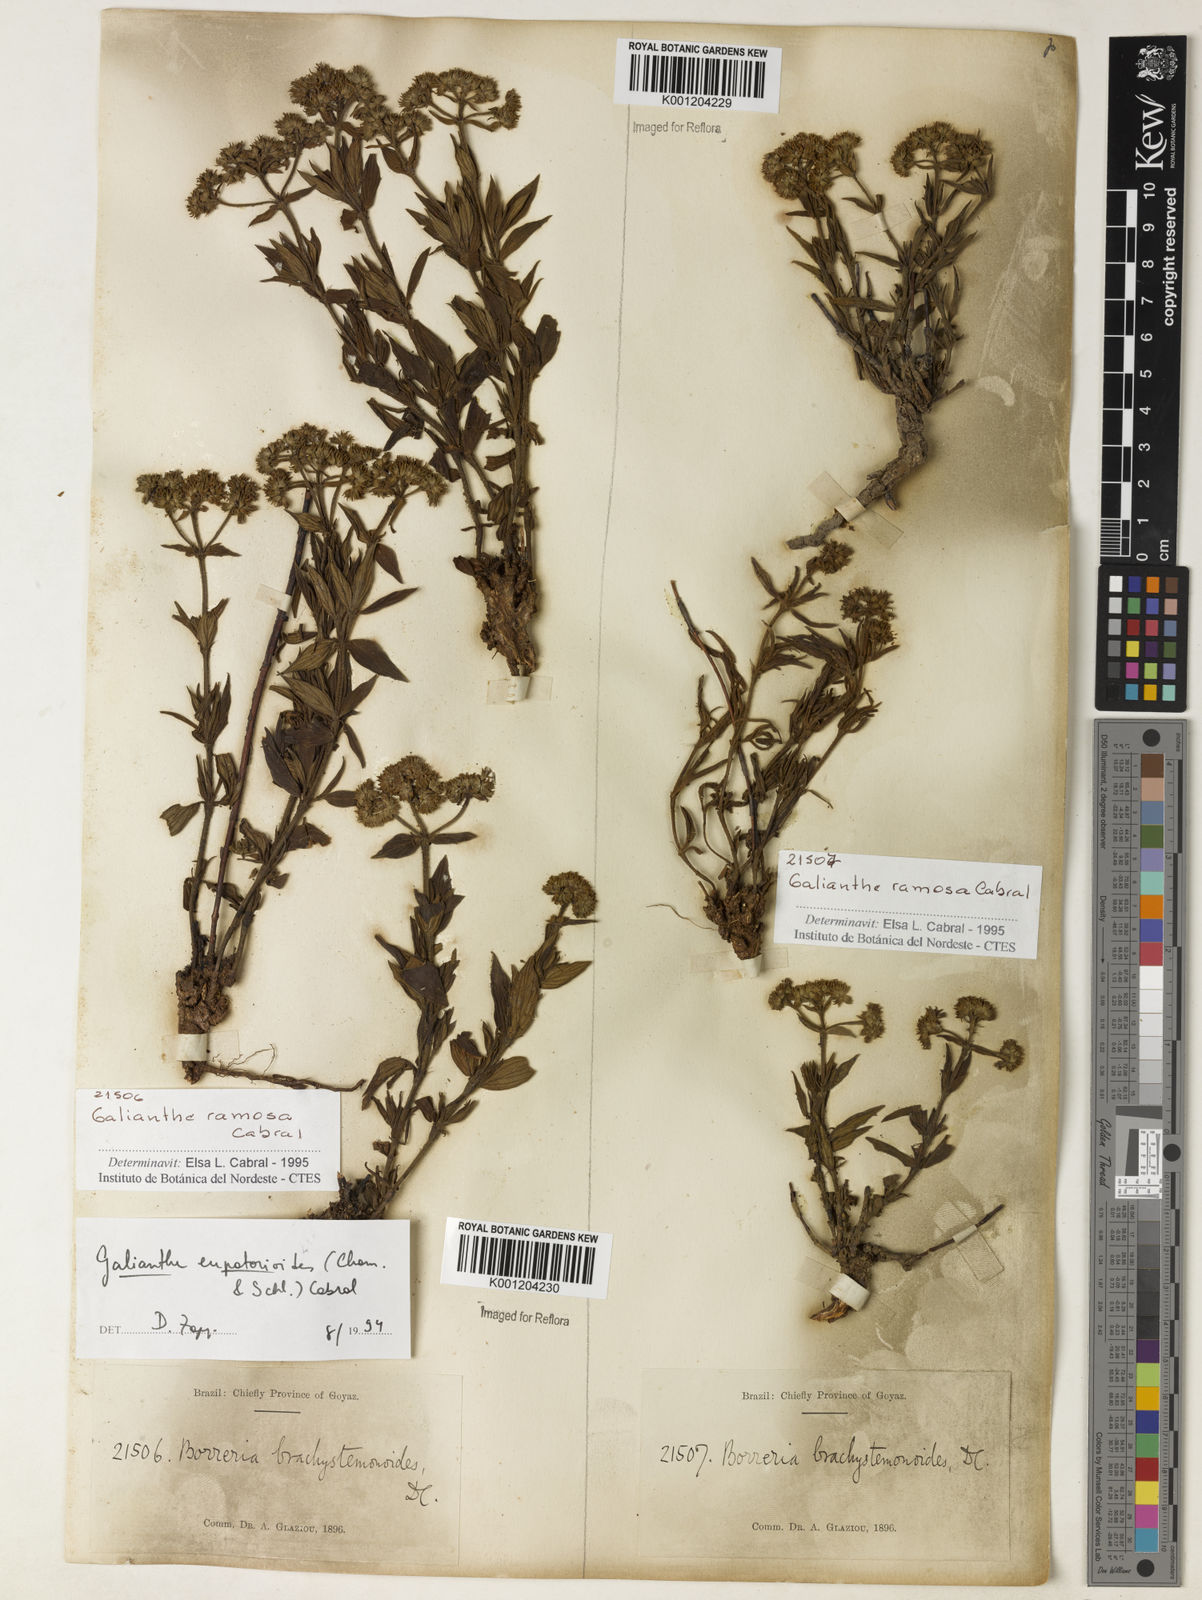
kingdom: Plantae
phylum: Tracheophyta
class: Magnoliopsida
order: Gentianales
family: Rubiaceae
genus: Galianthe
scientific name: Galianthe ramosa
